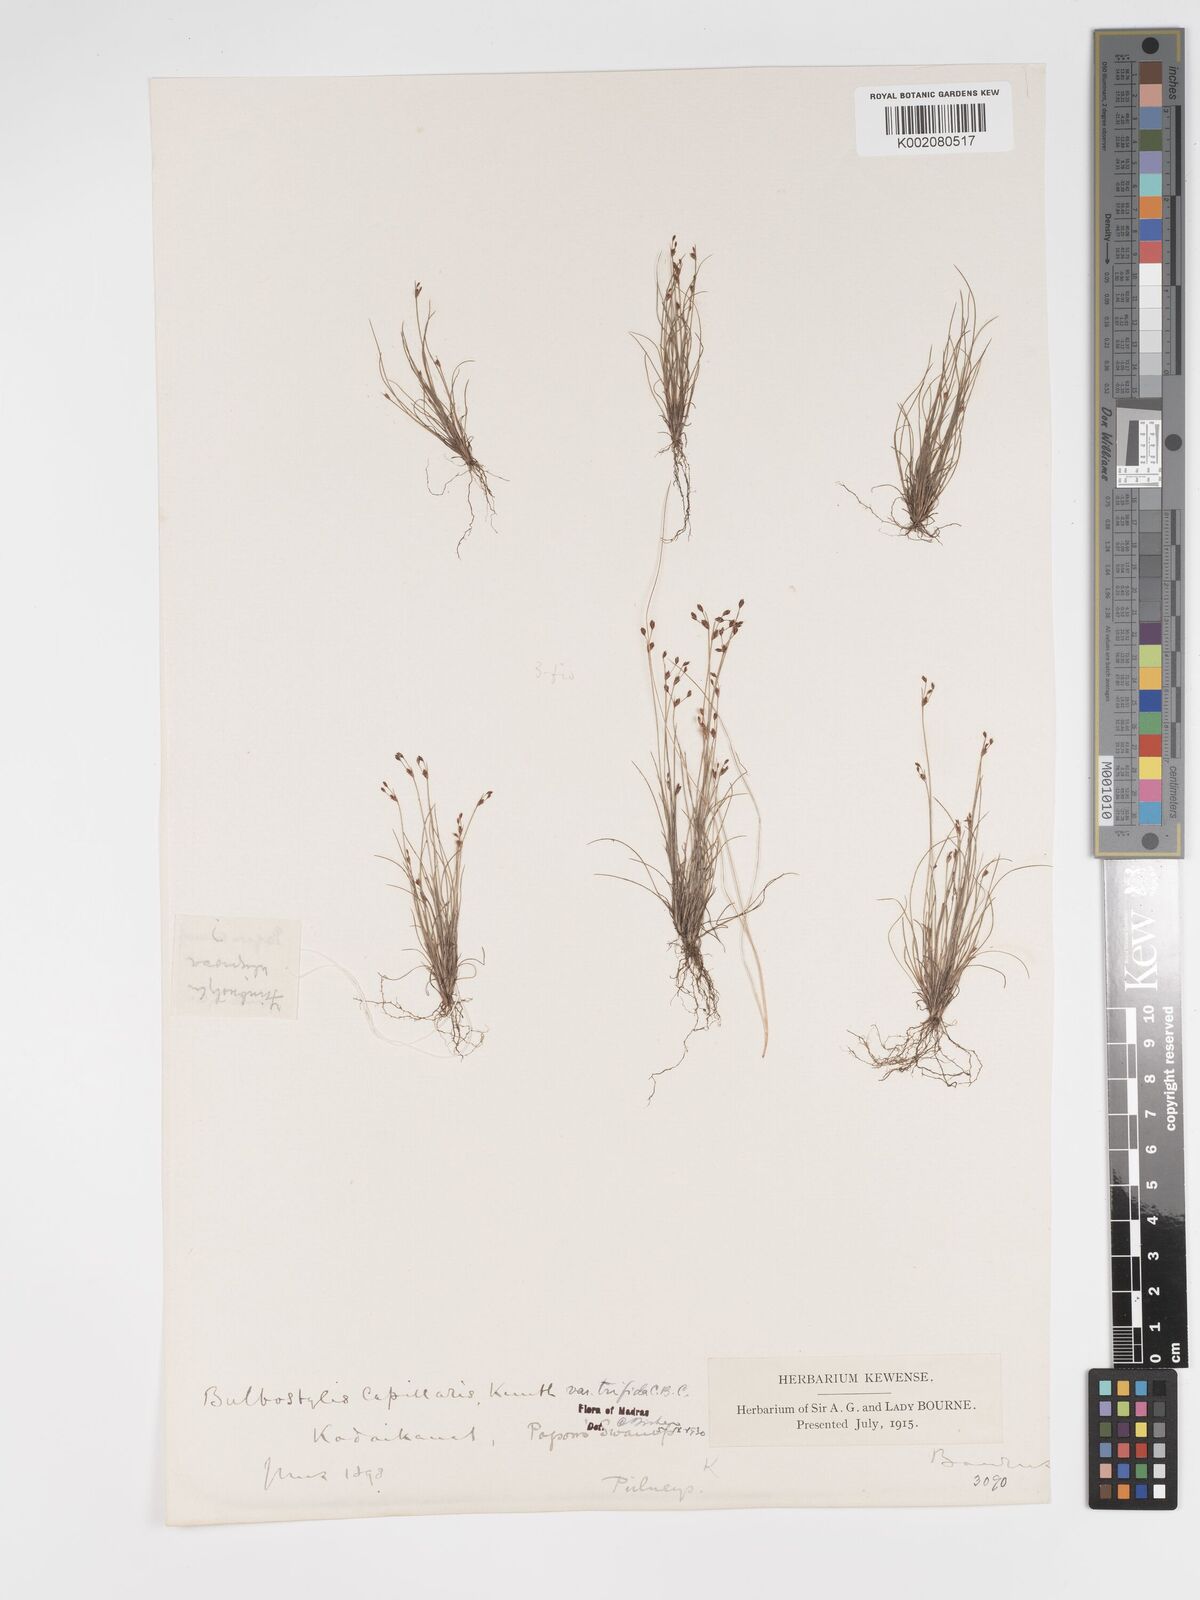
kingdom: Plantae
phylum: Tracheophyta
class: Liliopsida
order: Poales
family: Cyperaceae
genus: Bulbostylis
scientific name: Bulbostylis capillaris
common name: Densetuft hairsedge
